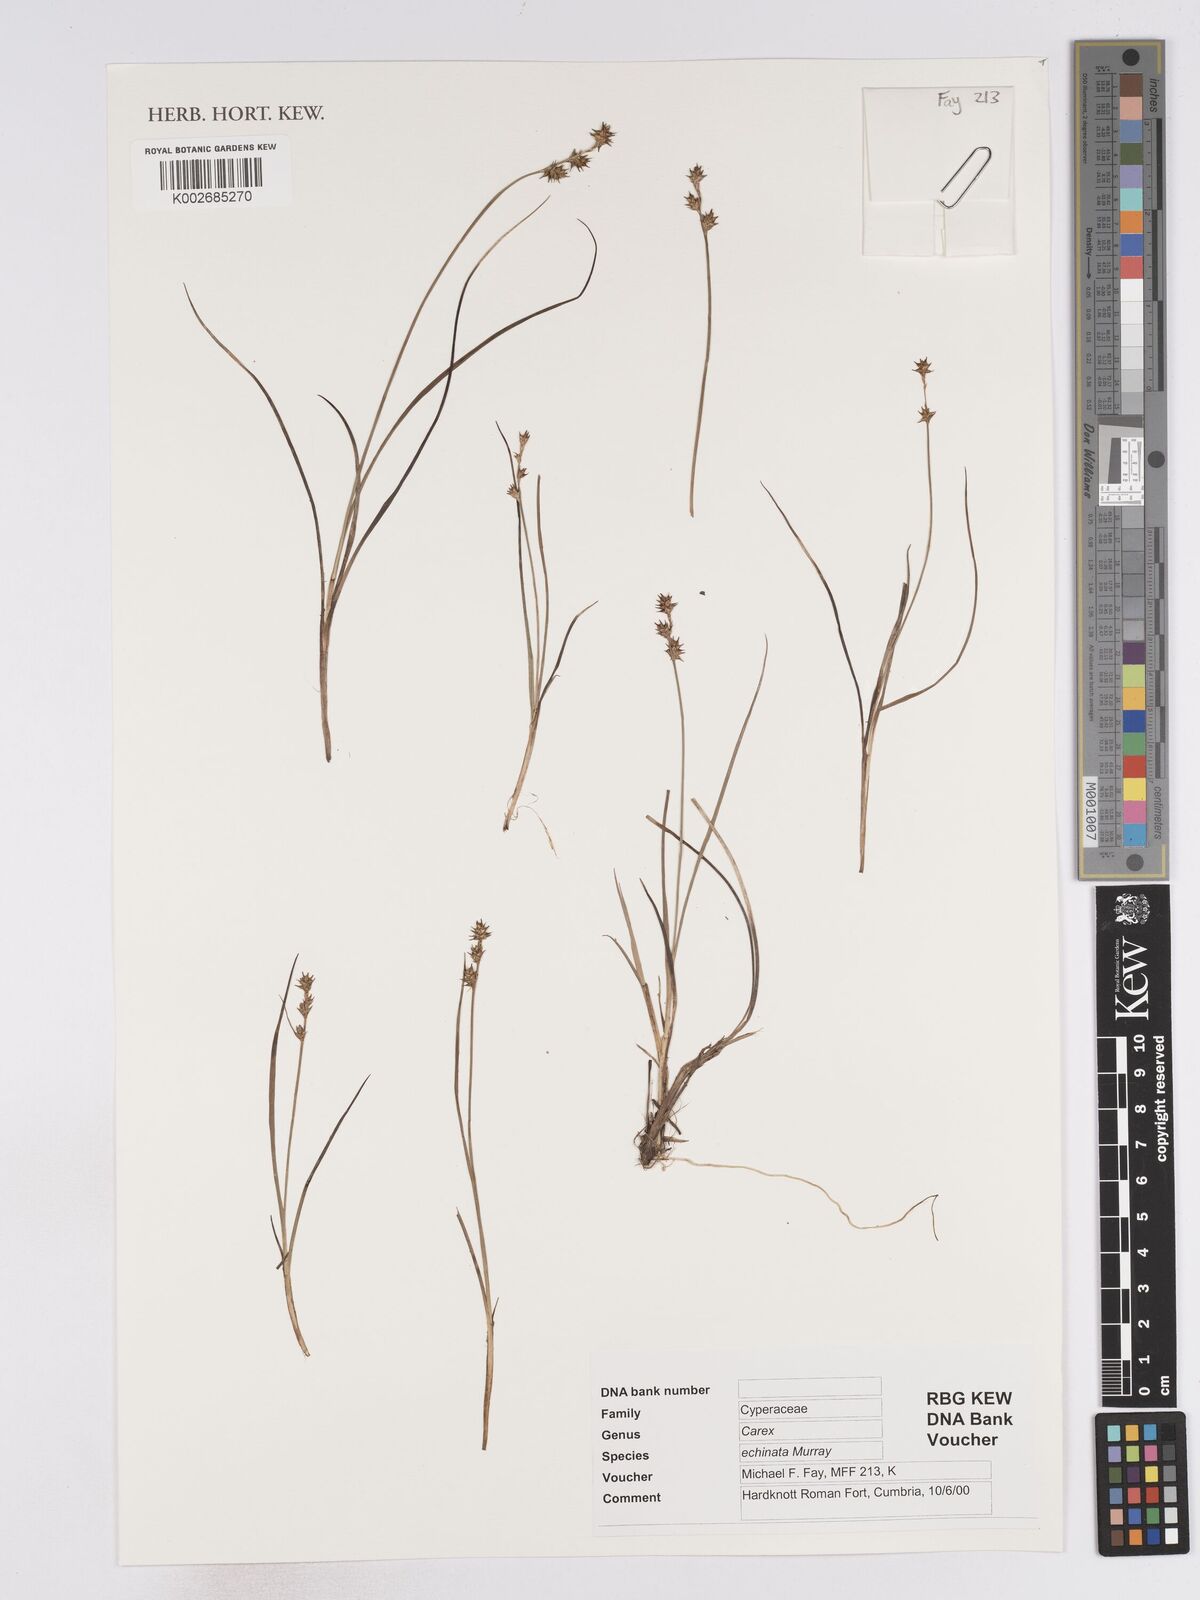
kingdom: Plantae
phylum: Tracheophyta
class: Liliopsida
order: Poales
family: Cyperaceae
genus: Carex
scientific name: Carex echinata
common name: Star sedge
